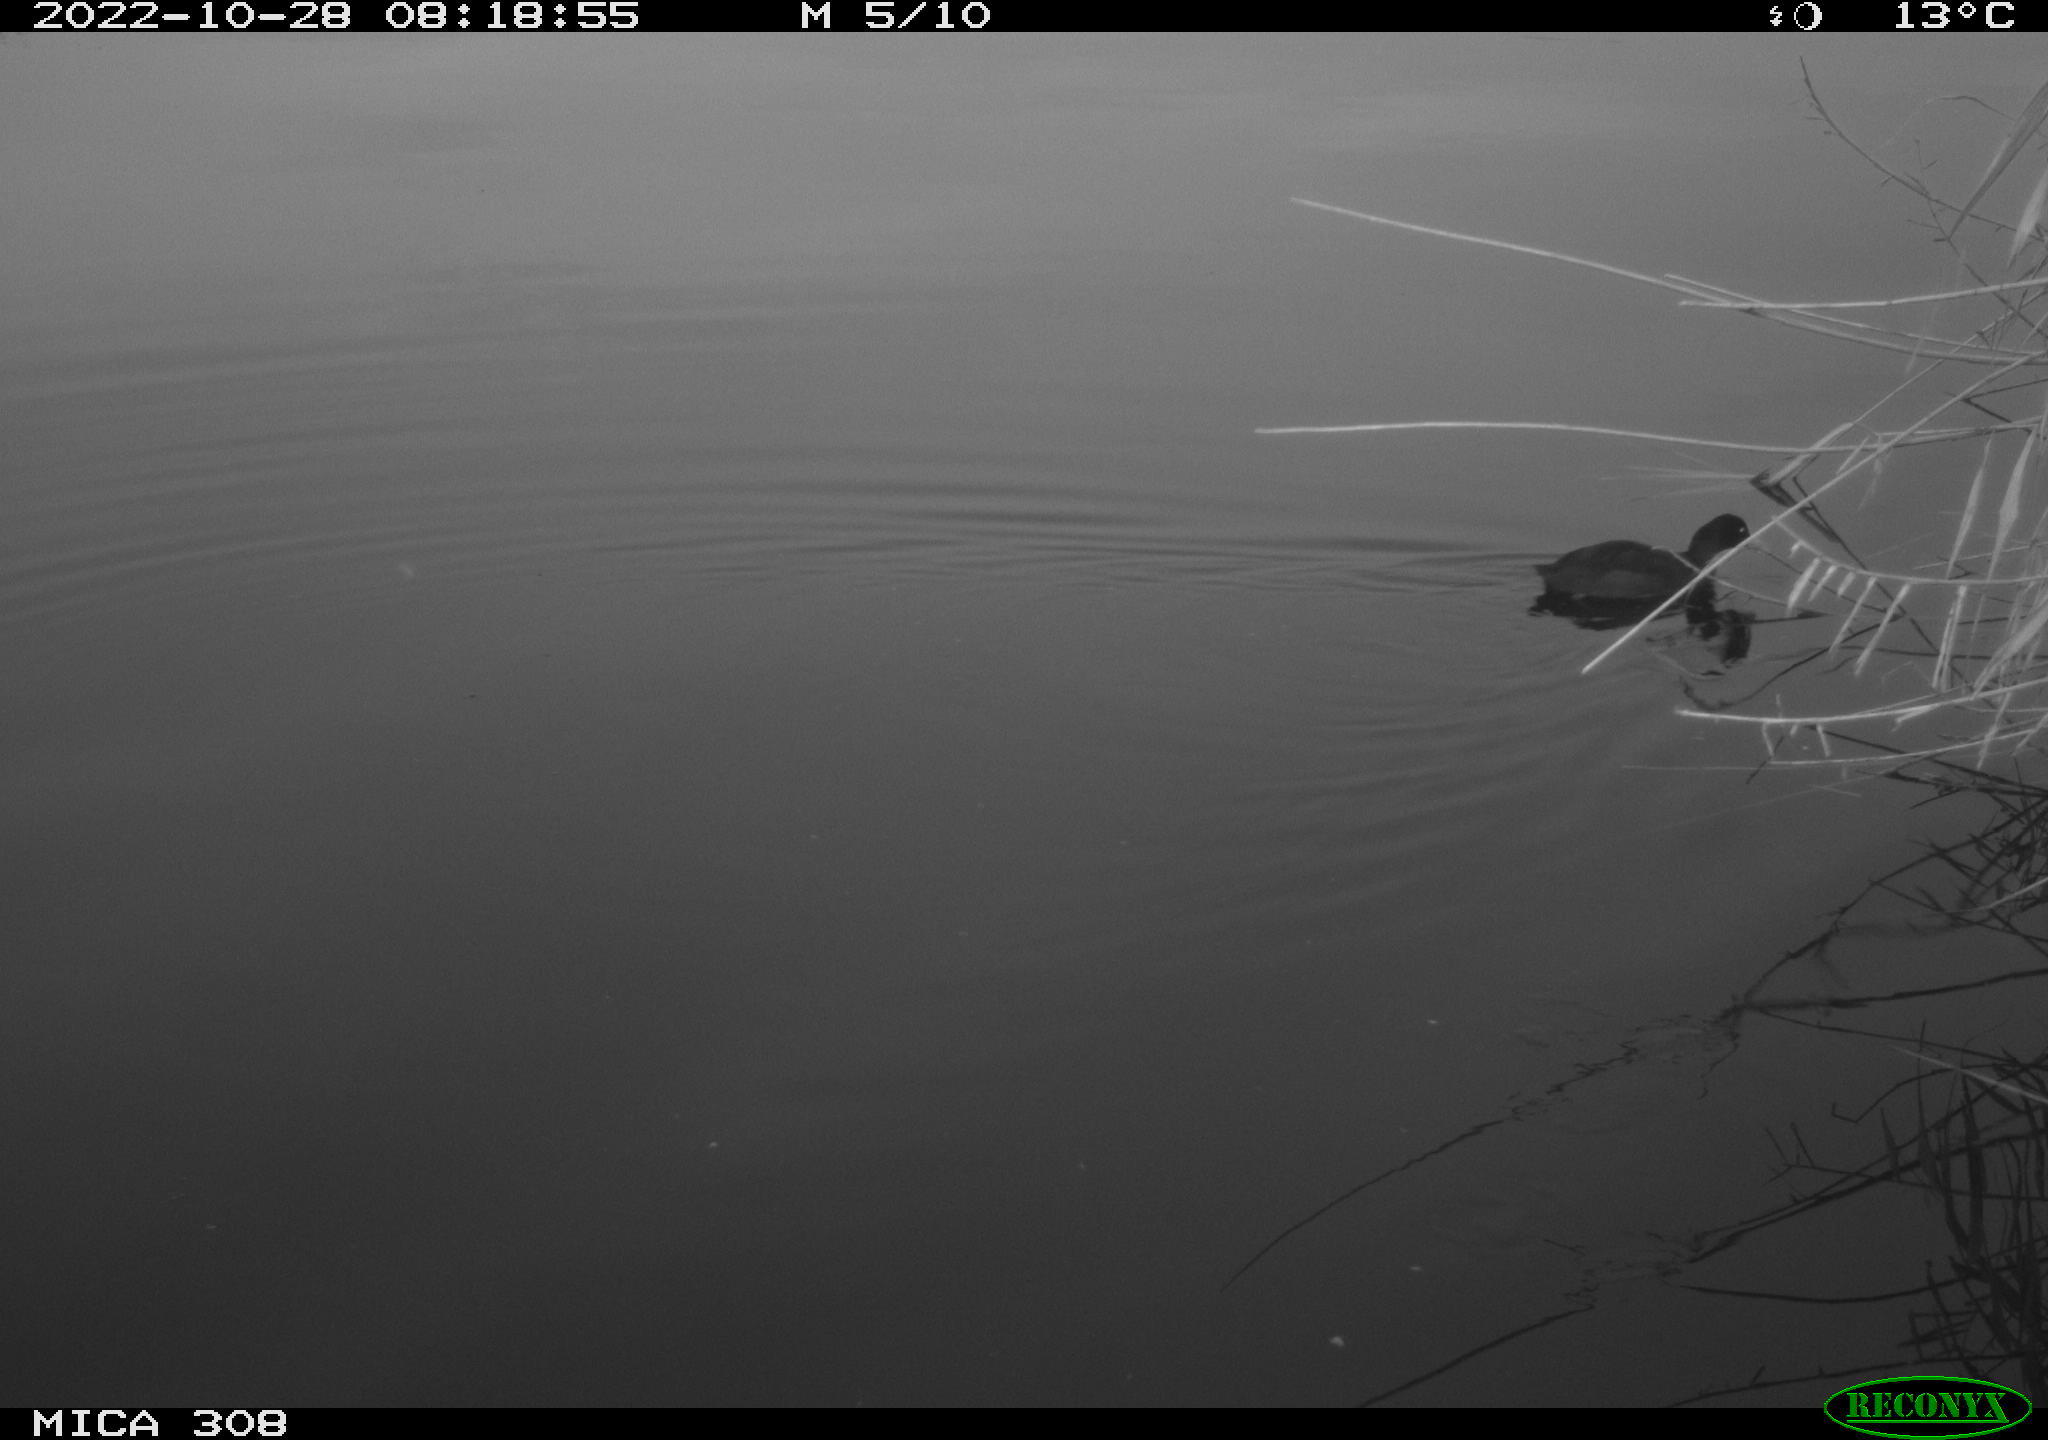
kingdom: Animalia
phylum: Chordata
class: Aves
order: Gruiformes
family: Rallidae
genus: Fulica
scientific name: Fulica atra
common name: Eurasian coot
